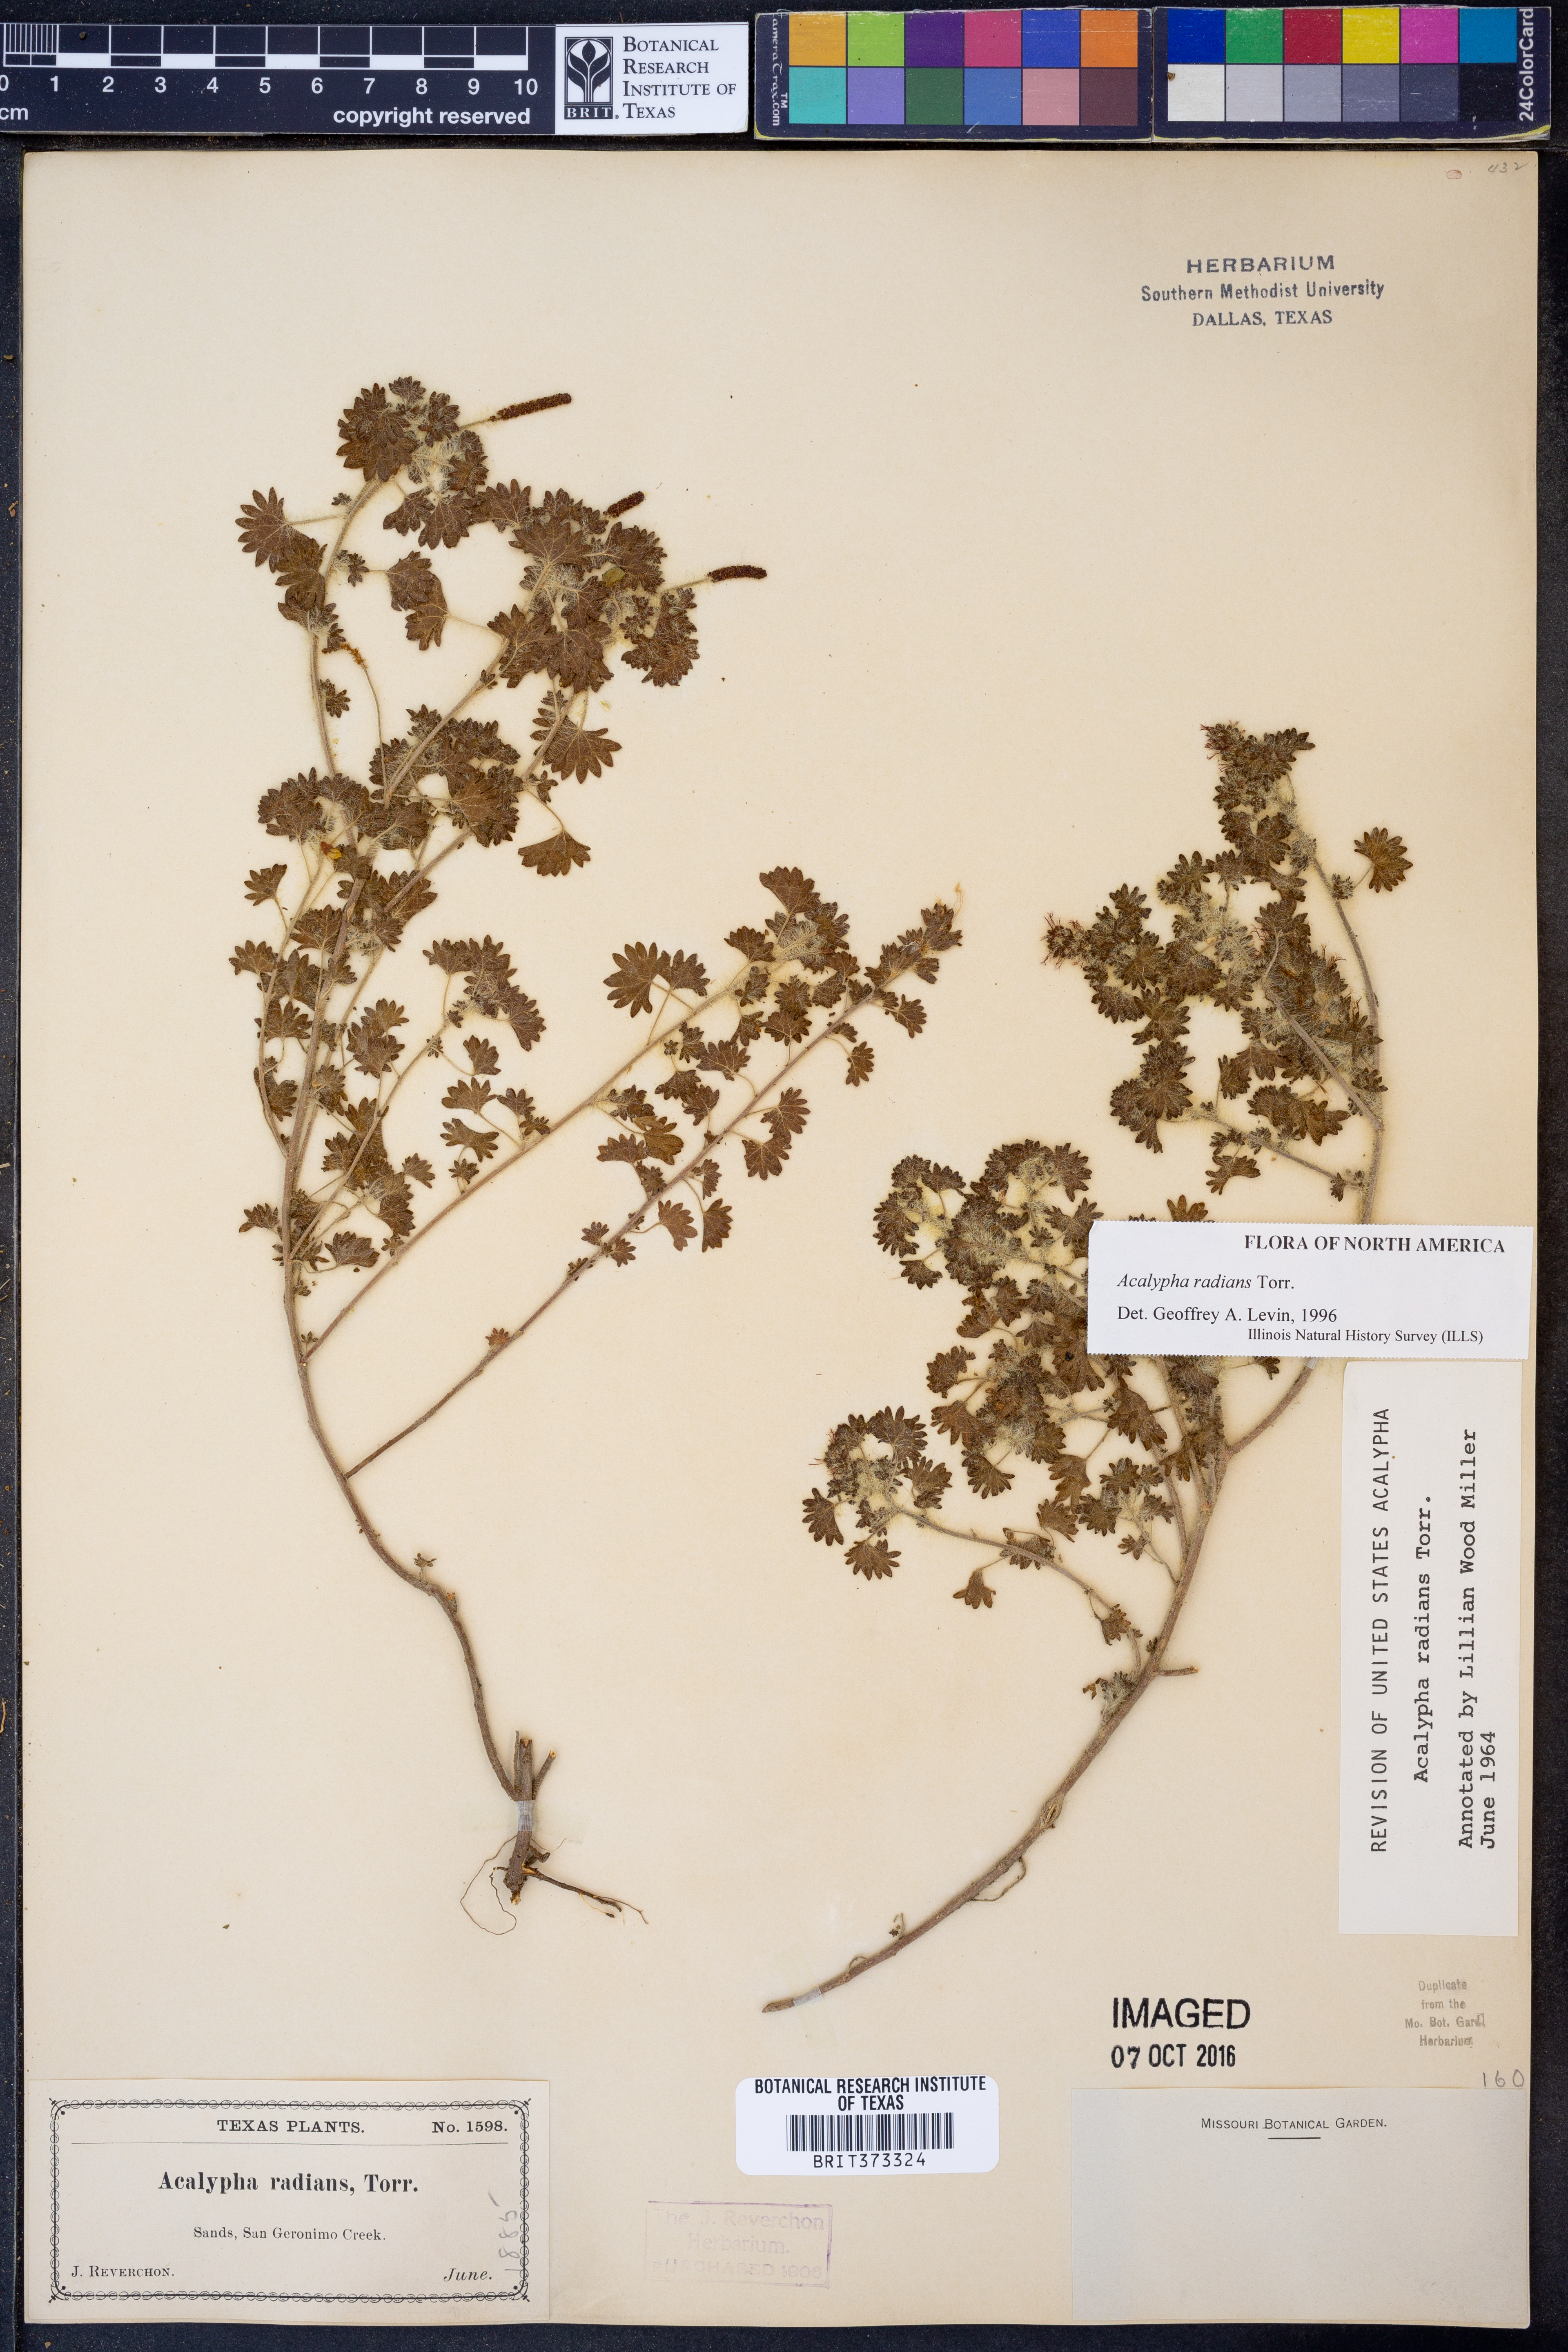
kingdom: Plantae
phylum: Tracheophyta
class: Magnoliopsida
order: Malpighiales
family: Euphorbiaceae
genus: Acalypha
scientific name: Acalypha radians
